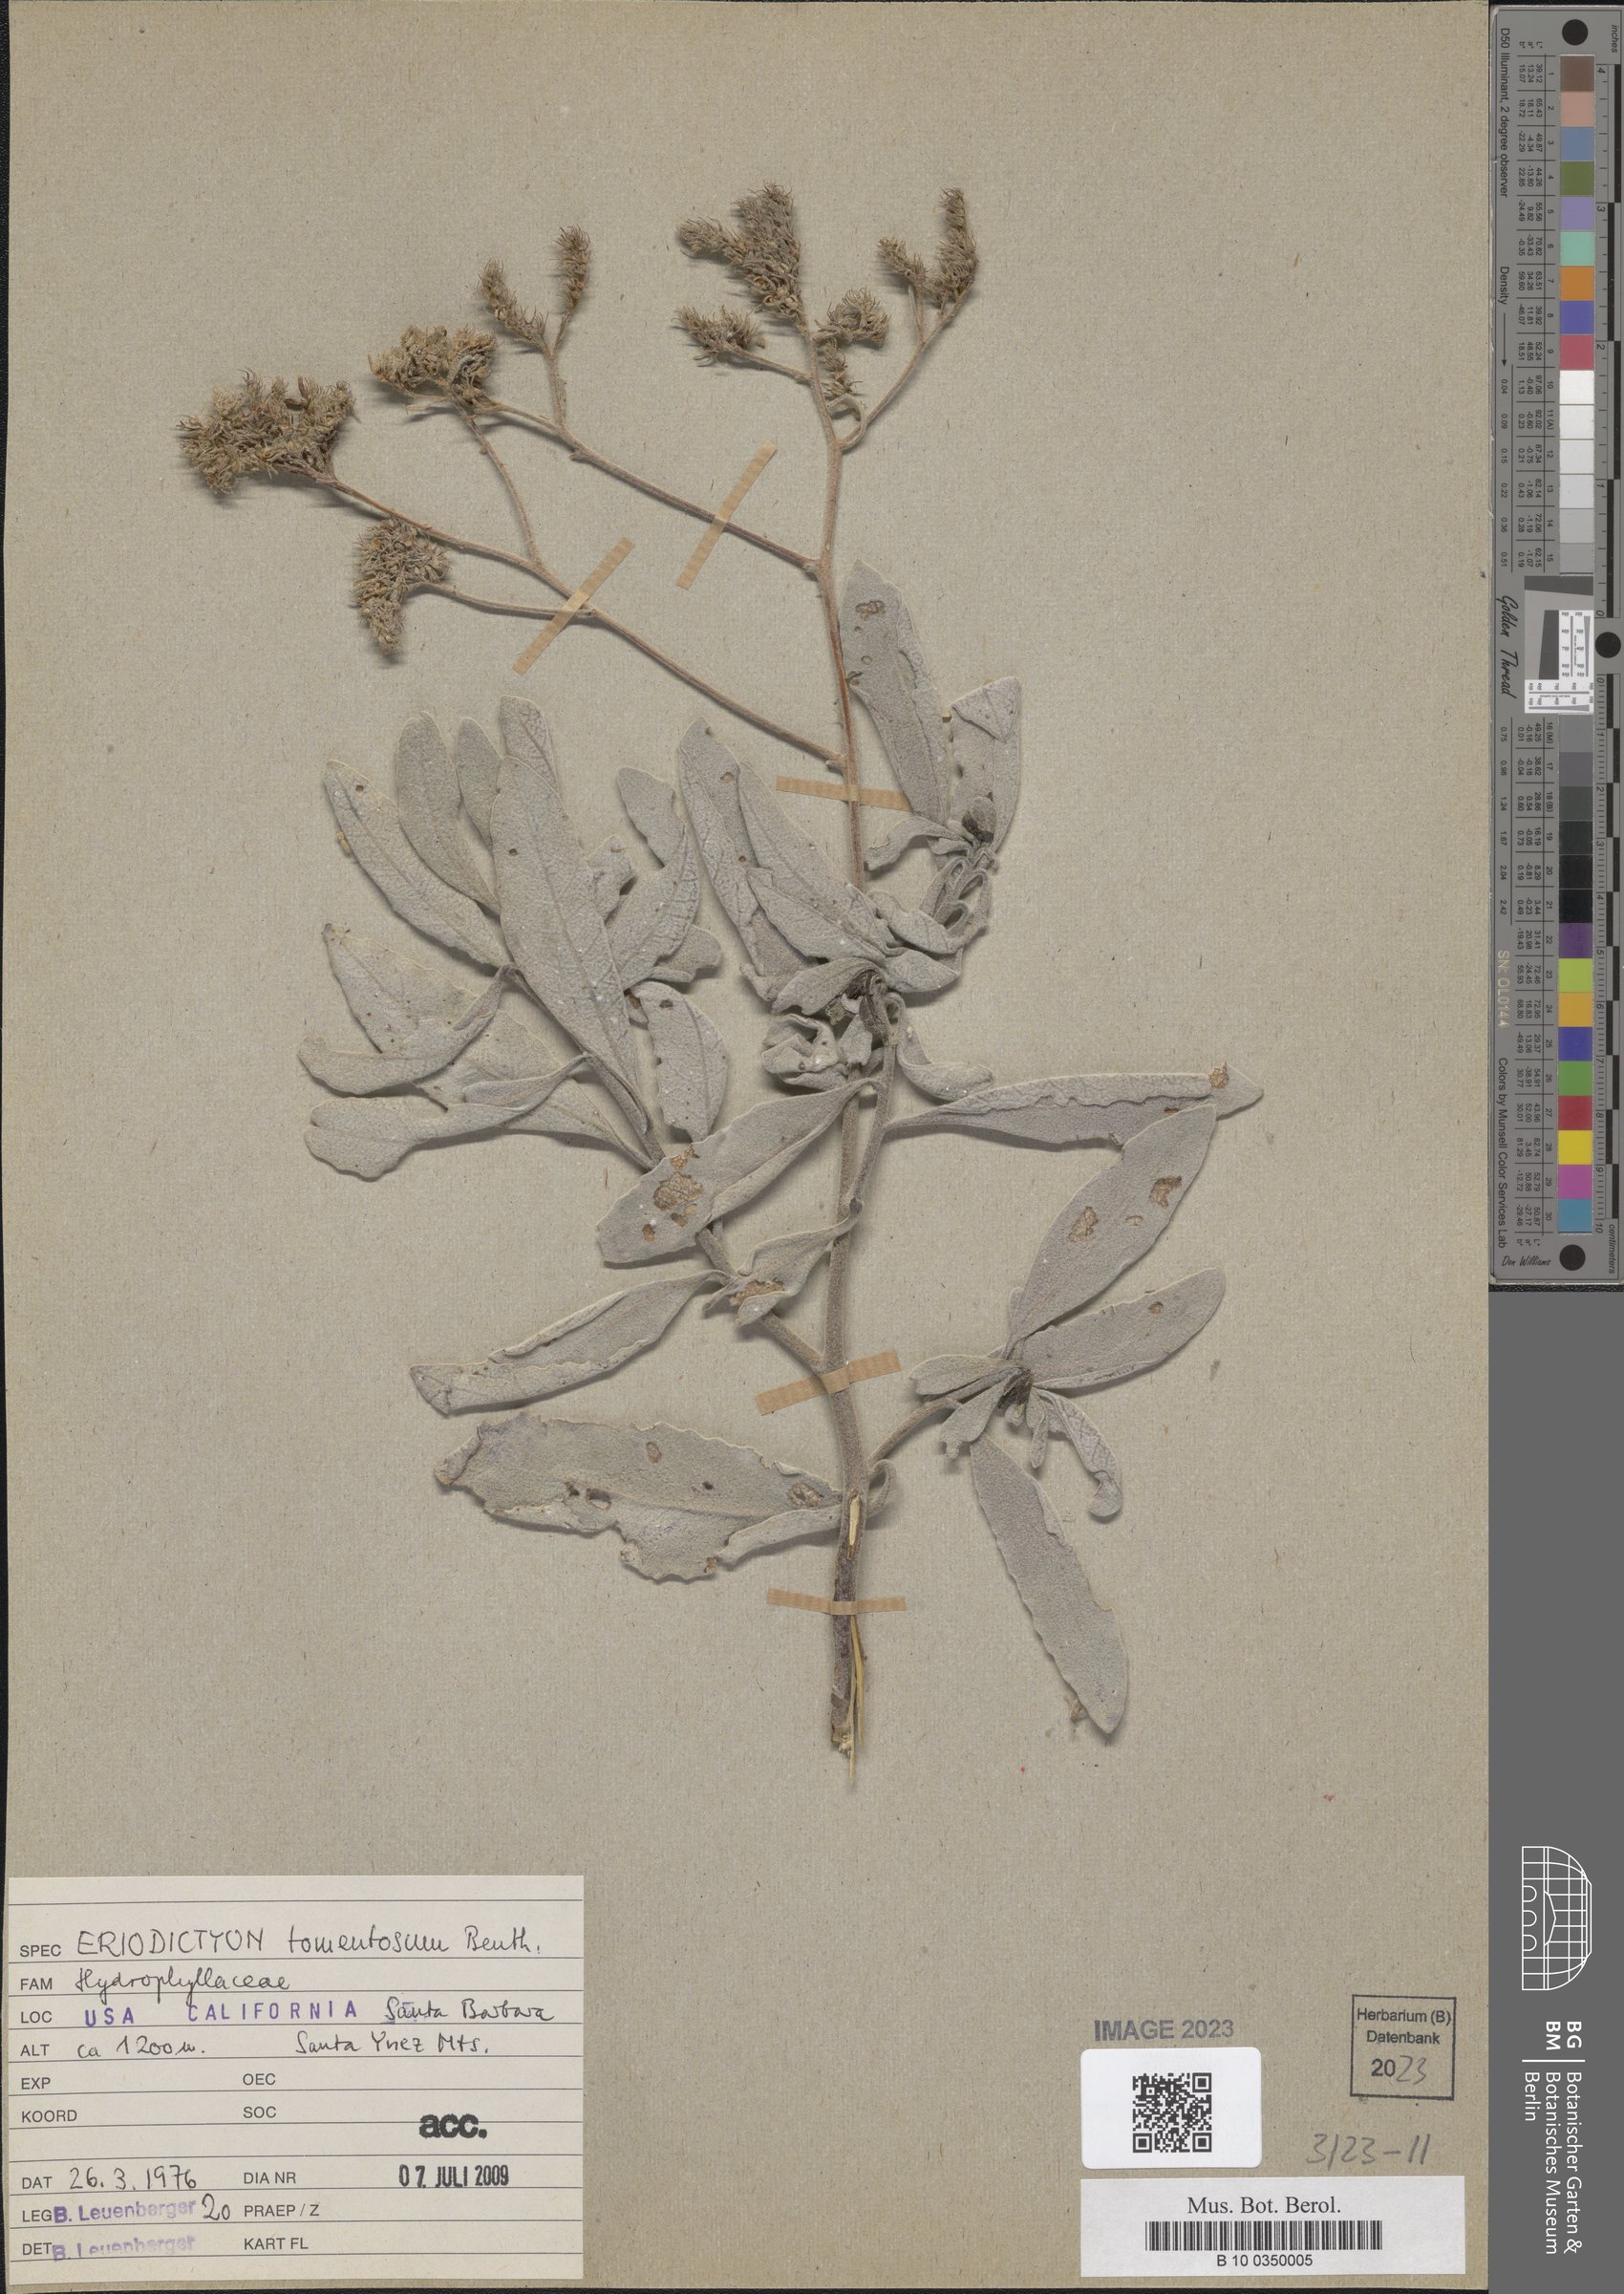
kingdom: Plantae
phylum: Tracheophyta
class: Magnoliopsida
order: Boraginales
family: Namaceae
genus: Eriodictyon
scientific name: Eriodictyon tomentosum
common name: Woolly yerba-santa
